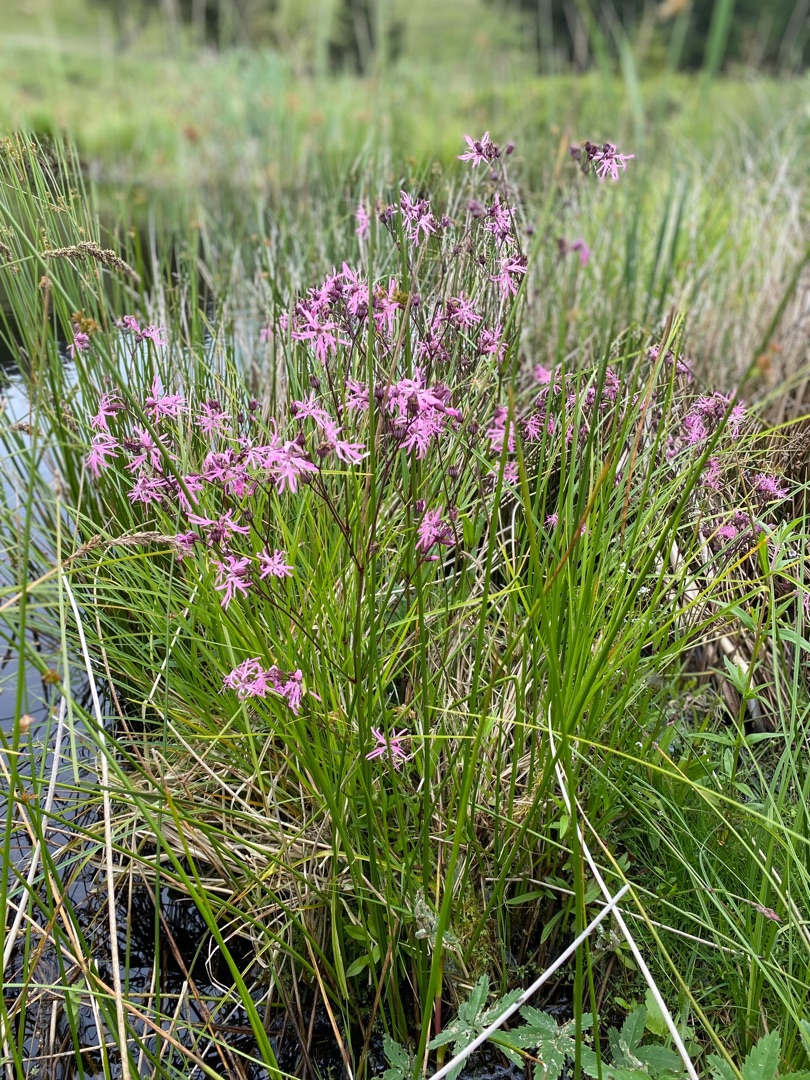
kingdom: Plantae
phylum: Tracheophyta
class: Magnoliopsida
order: Caryophyllales
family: Caryophyllaceae
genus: Silene
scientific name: Silene flos-cuculi
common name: Trævlekrone
